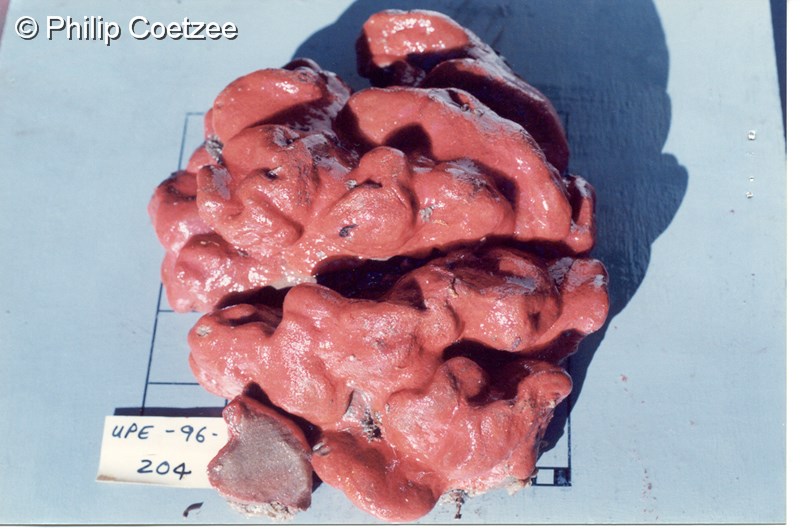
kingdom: Animalia
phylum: Chordata
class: Ascidiacea
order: Aplousobranchia
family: Polyclinidae
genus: Aplidium
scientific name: Aplidium
